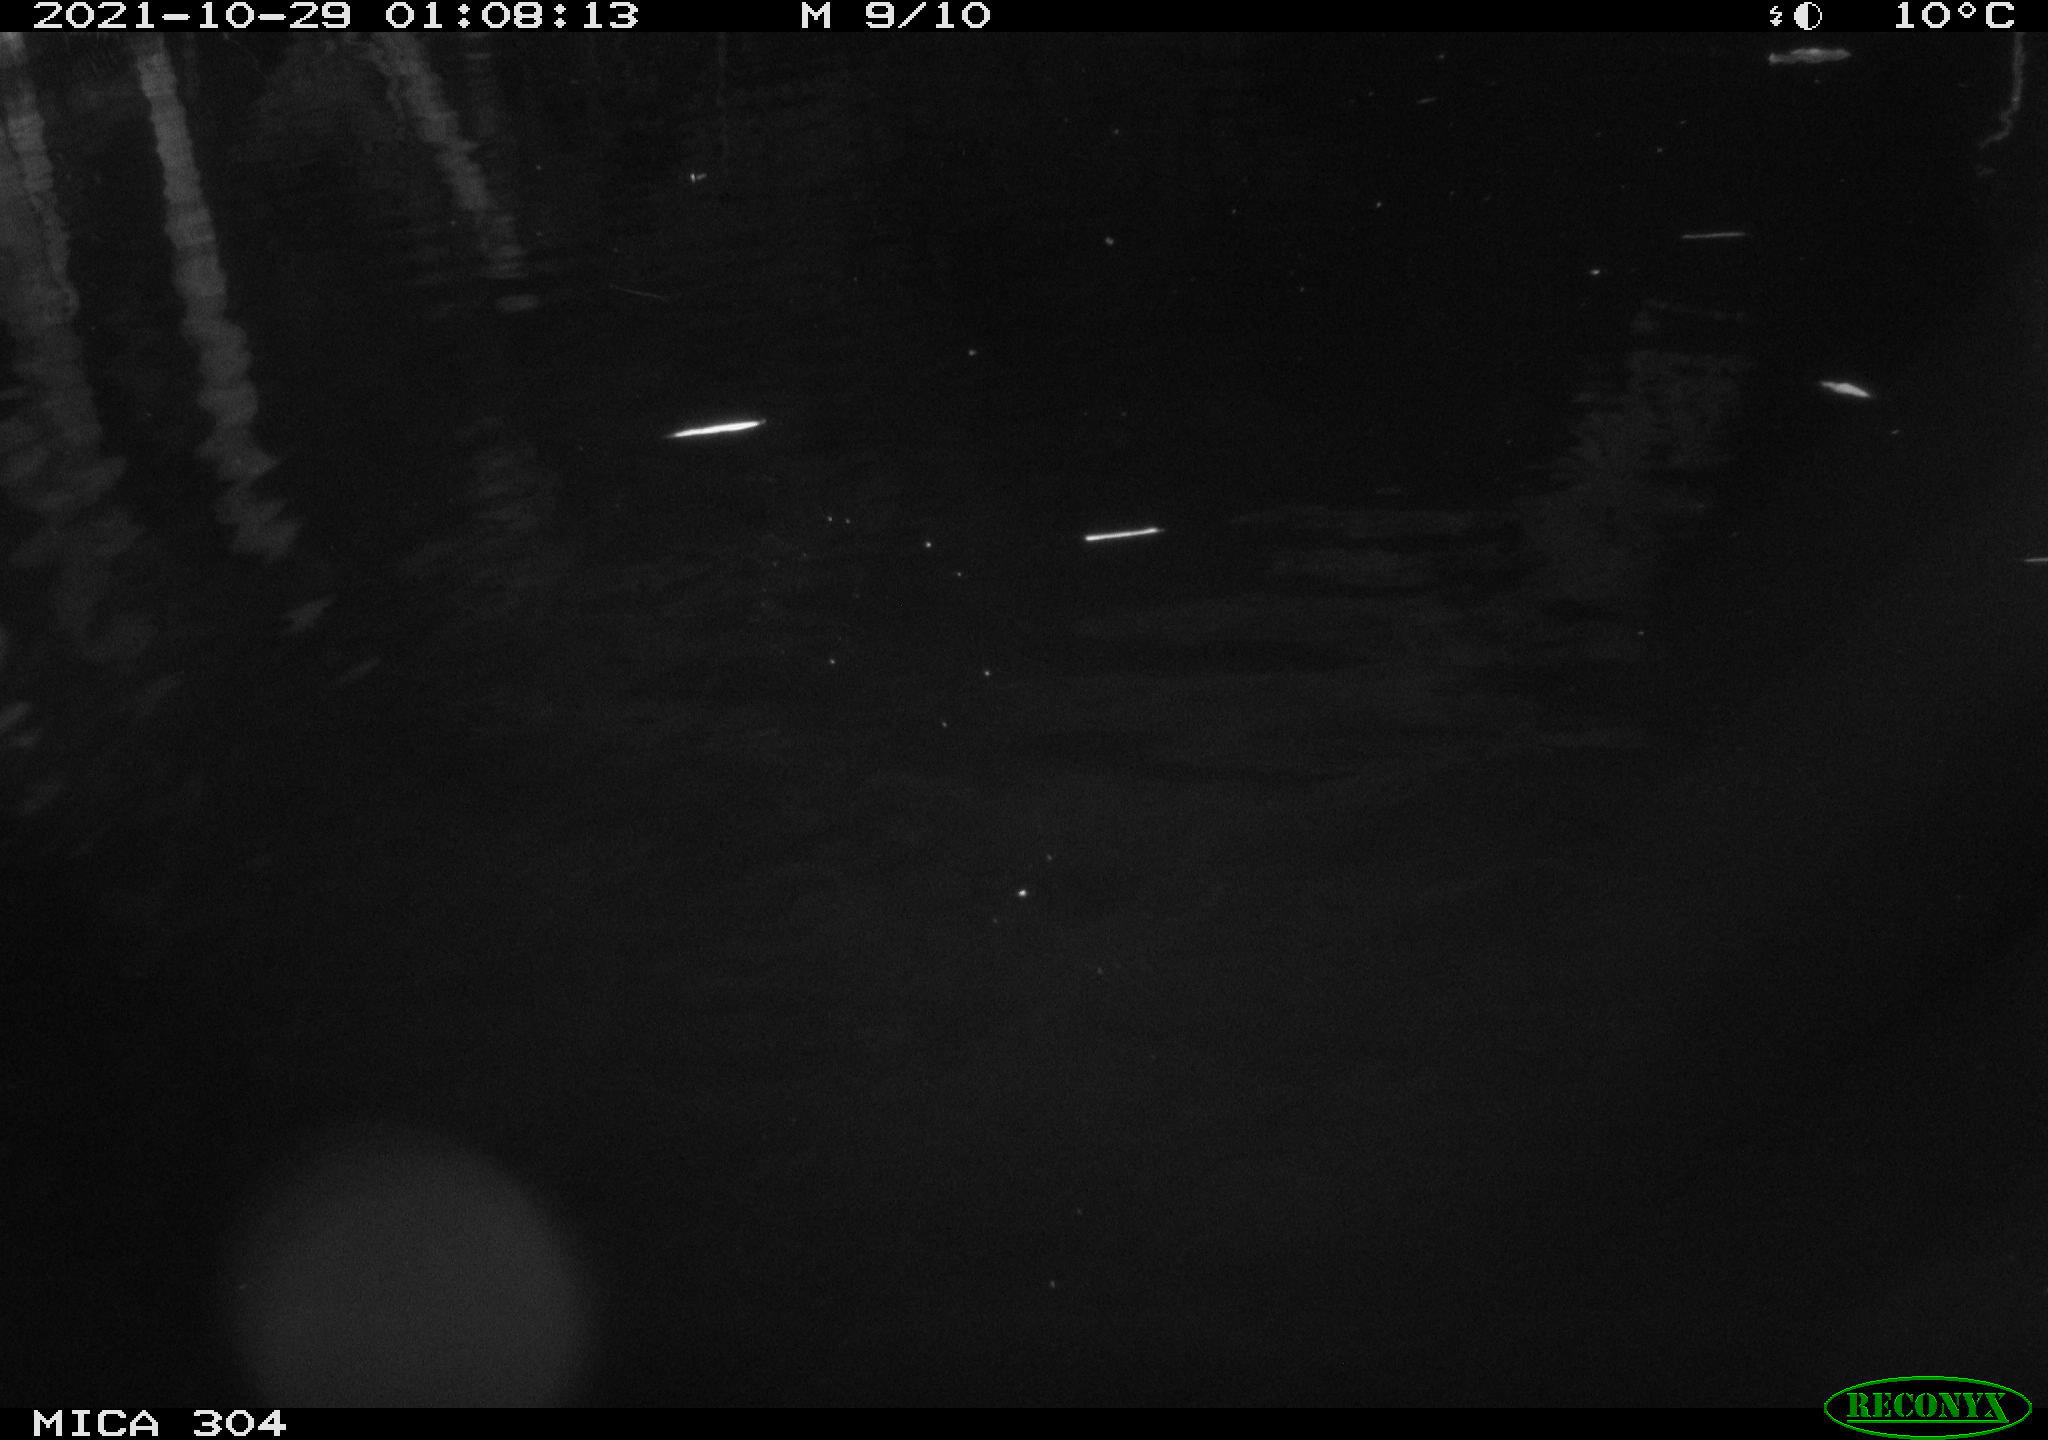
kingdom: Animalia
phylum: Chordata
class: Mammalia
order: Rodentia
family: Cricetidae
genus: Ondatra
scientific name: Ondatra zibethicus
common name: Muskrat
